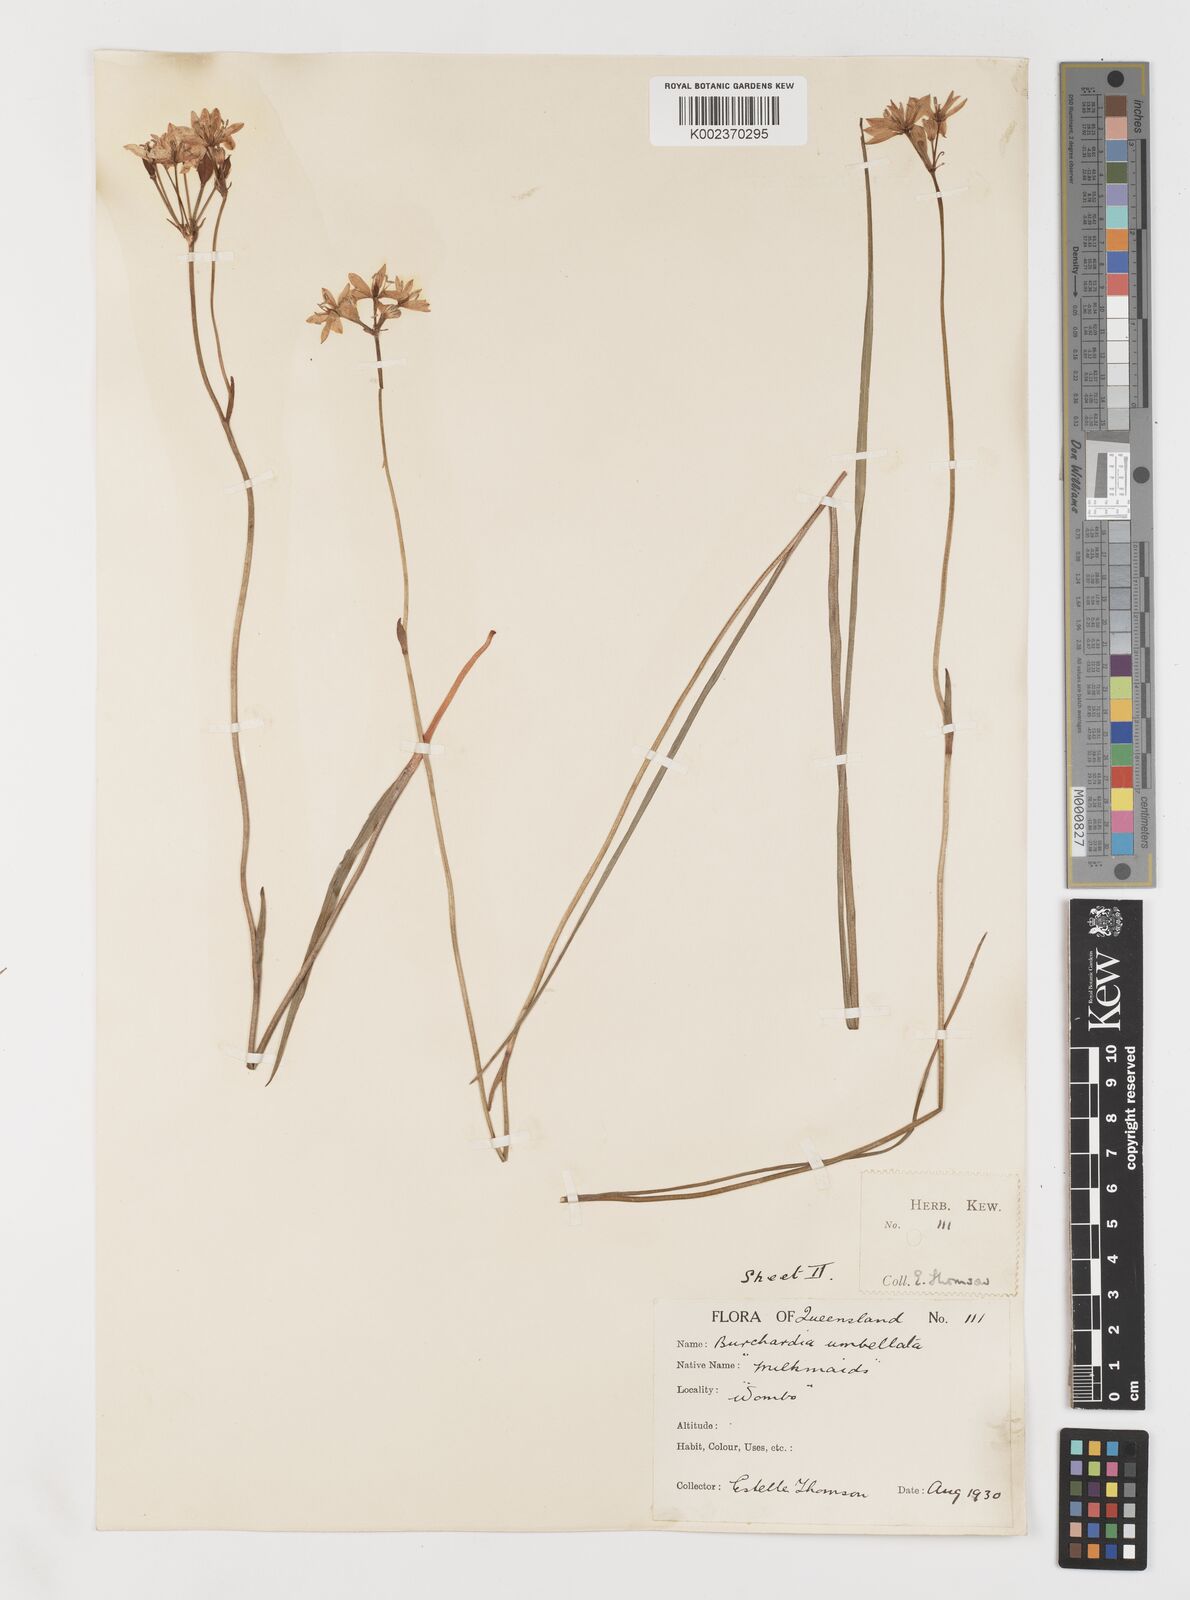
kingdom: Plantae
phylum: Tracheophyta
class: Liliopsida
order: Liliales
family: Colchicaceae
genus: Burchardia
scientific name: Burchardia umbellata
